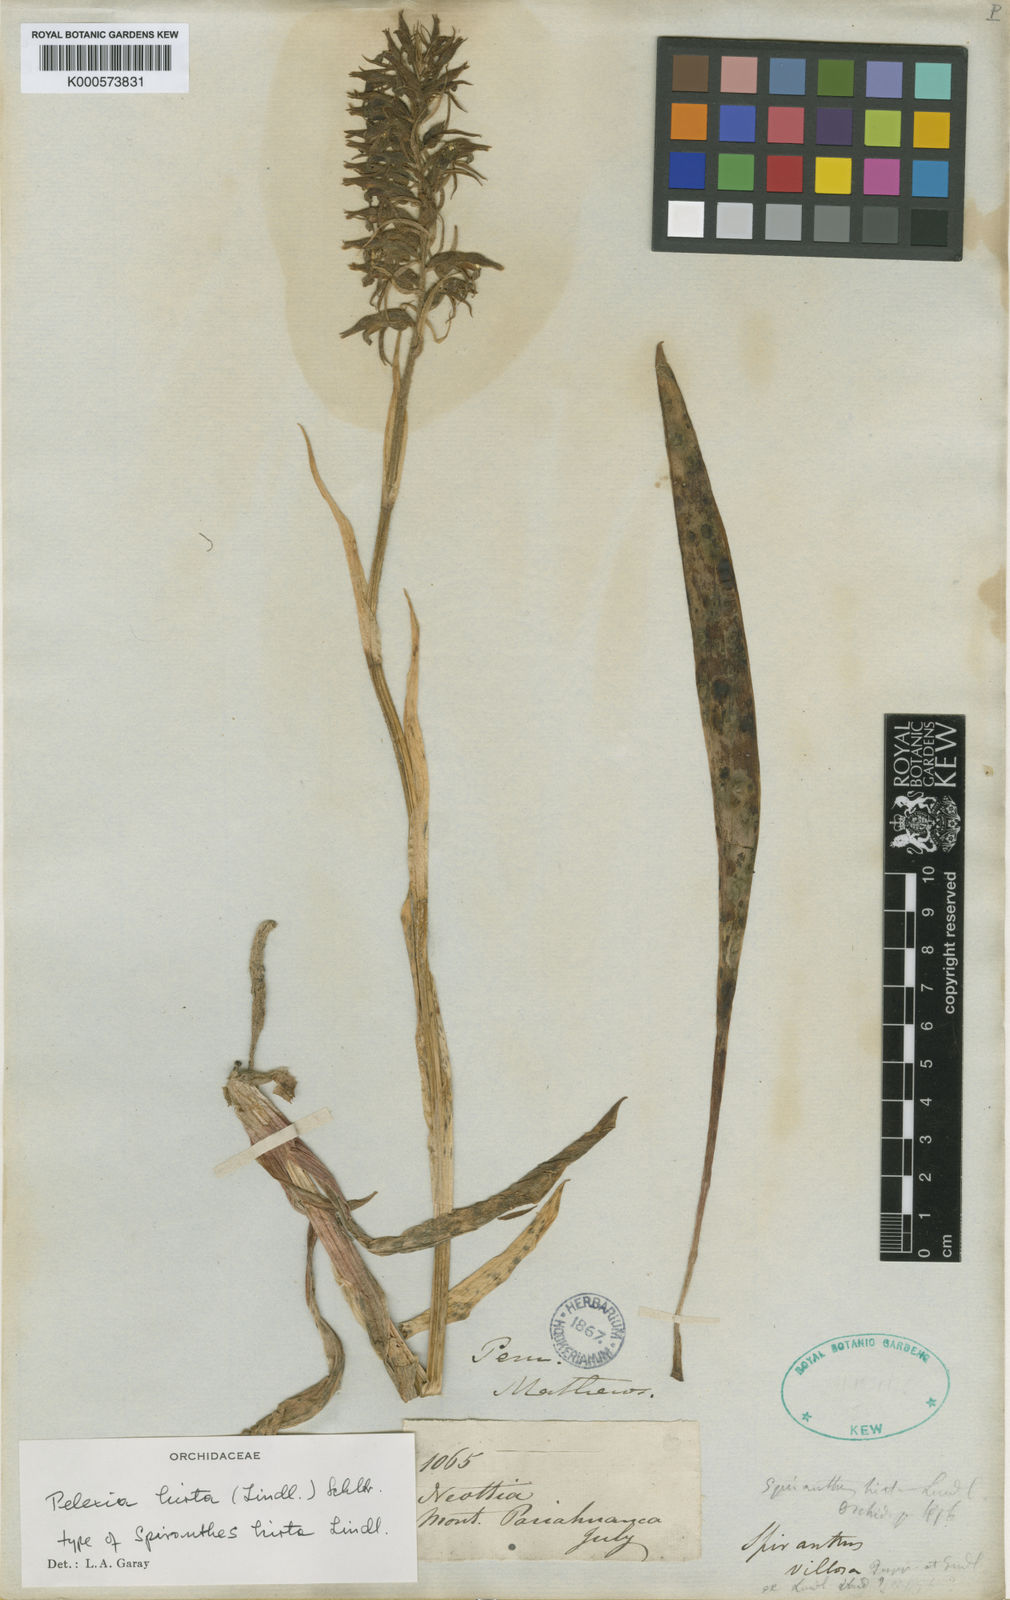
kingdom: Plantae
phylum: Tracheophyta
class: Liliopsida
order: Asparagales
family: Orchidaceae
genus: Pelexia
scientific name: Pelexia hirta
